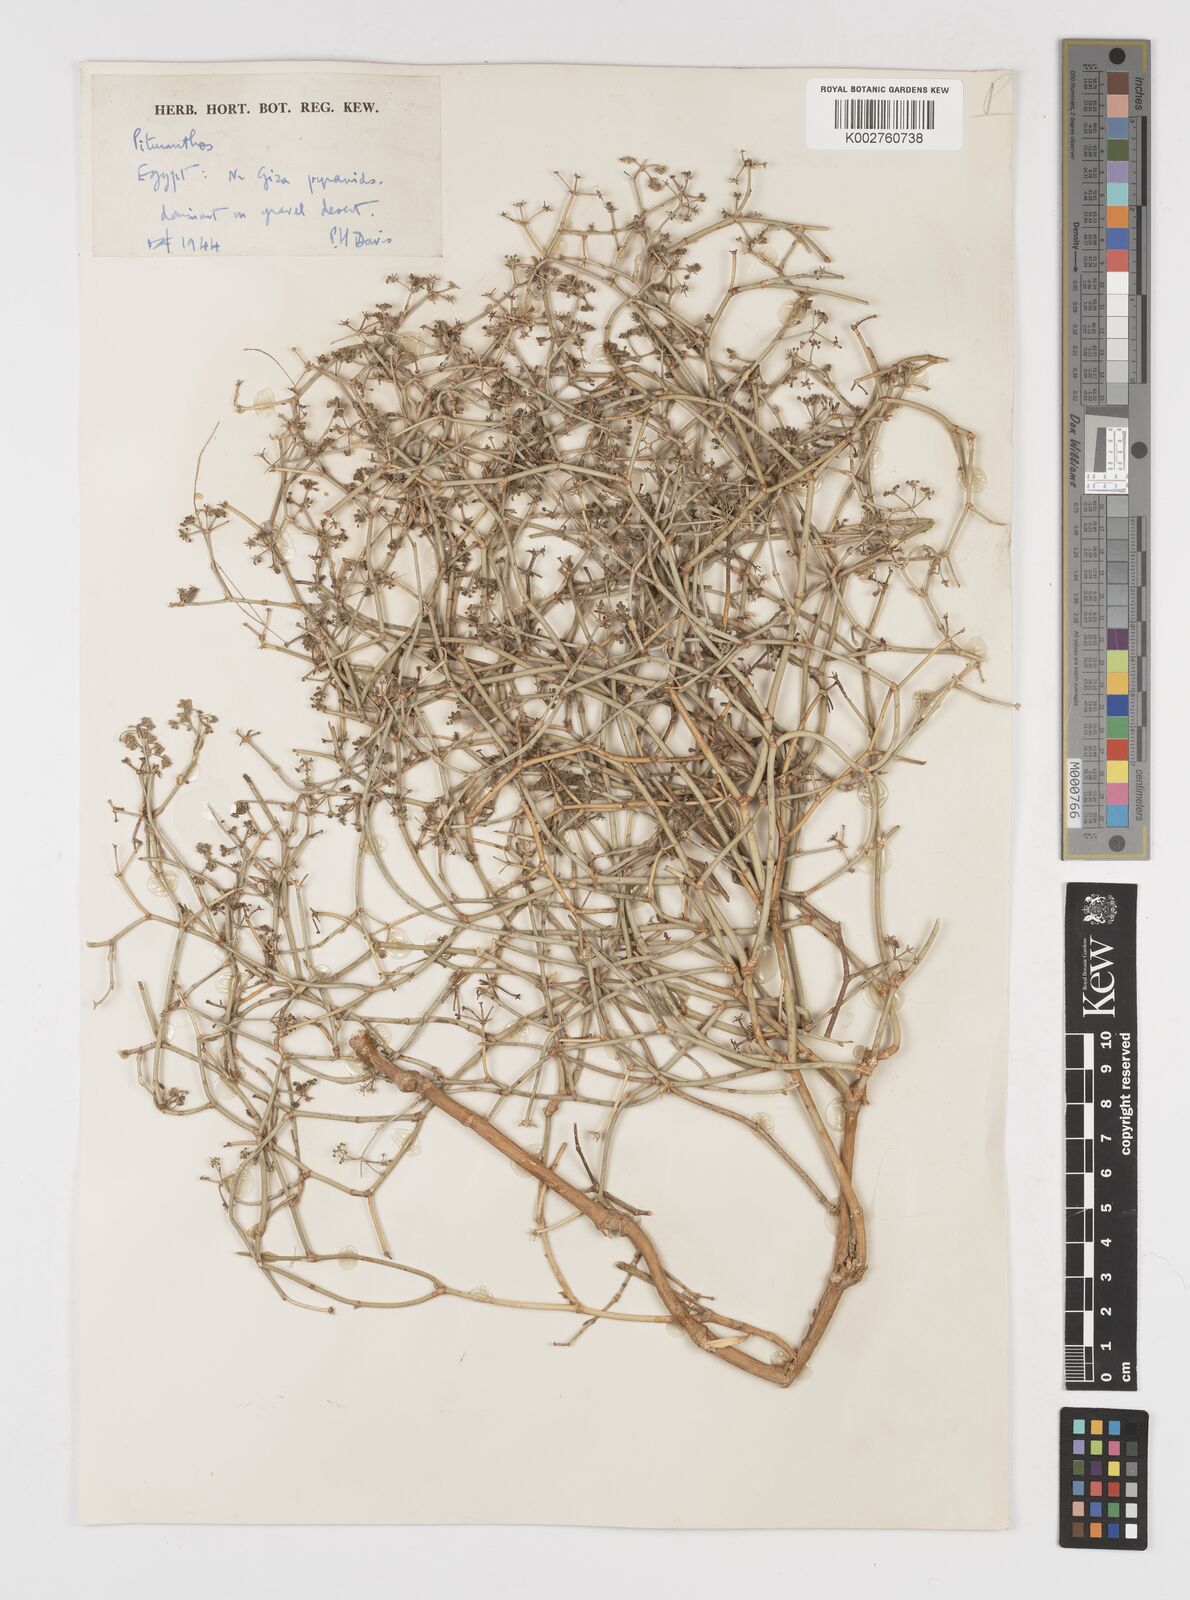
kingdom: Plantae
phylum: Tracheophyta
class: Magnoliopsida
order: Apiales
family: Apiaceae
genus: Deverra
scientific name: Deverra tortuosa
